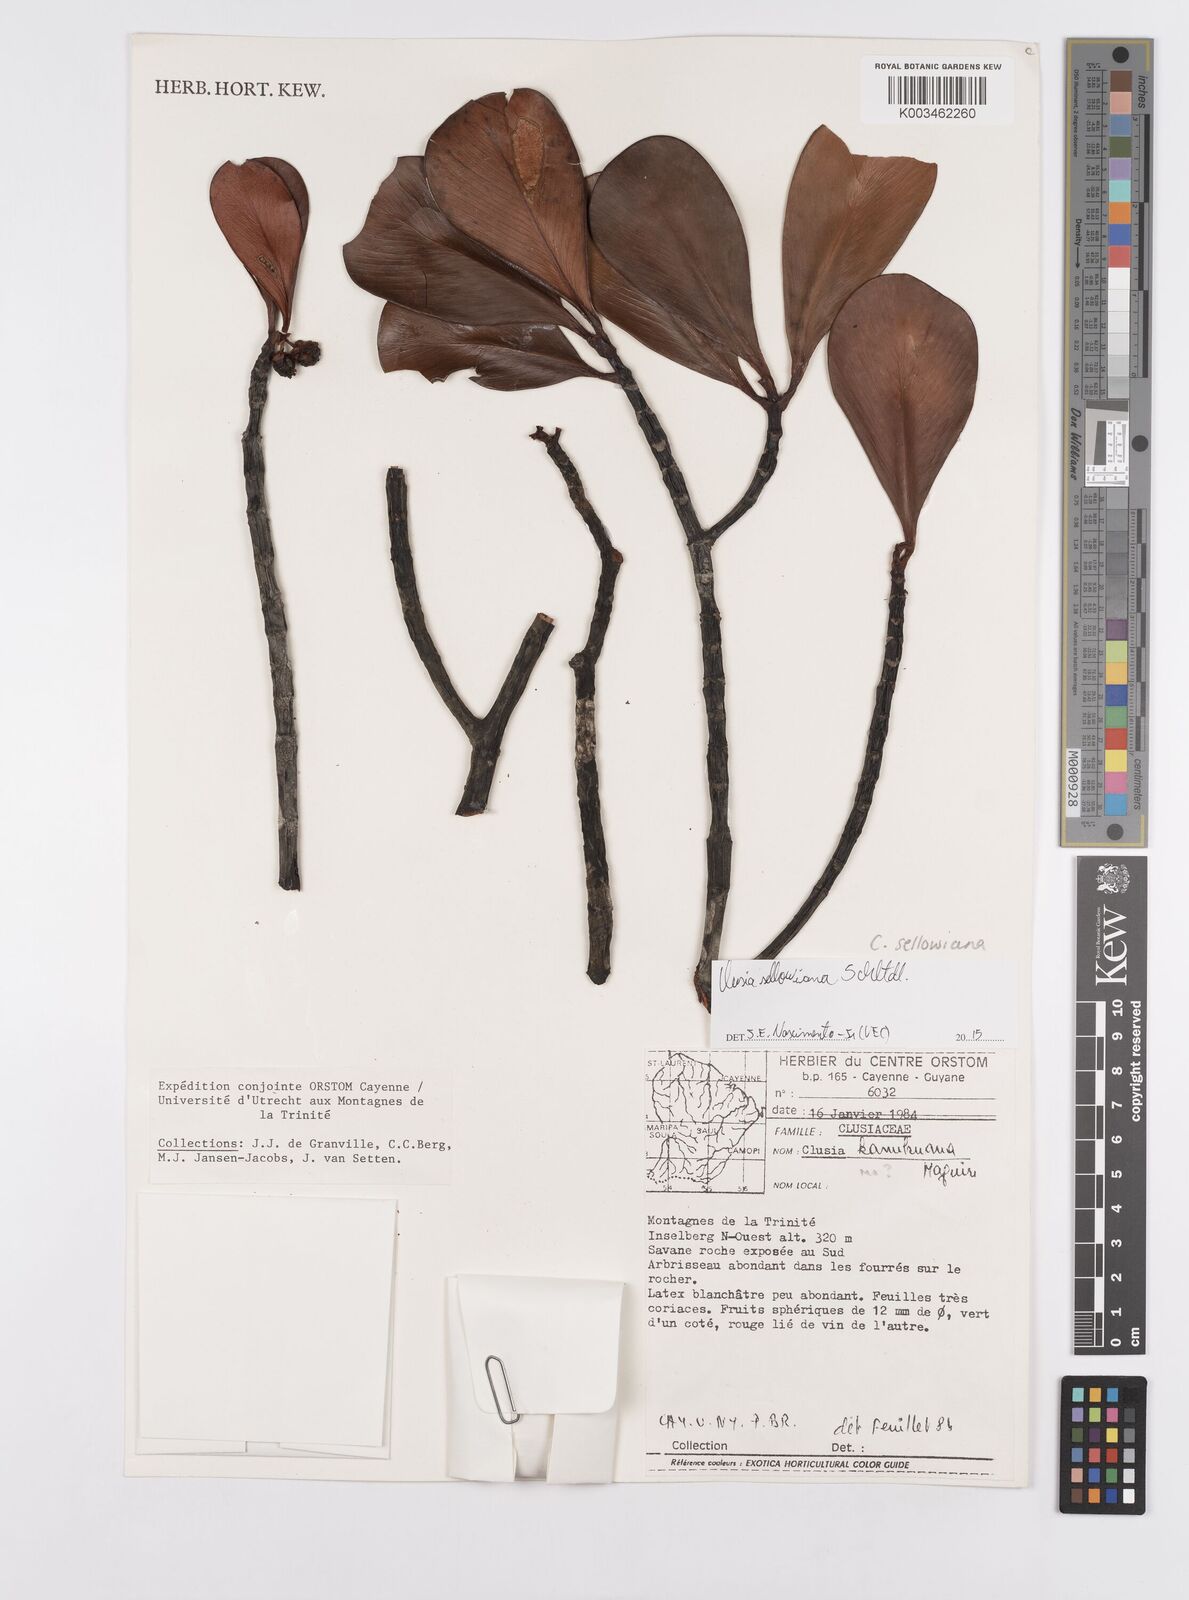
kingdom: Plantae
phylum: Tracheophyta
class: Magnoliopsida
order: Malpighiales
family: Clusiaceae
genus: Clusia
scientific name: Clusia sellowiana
